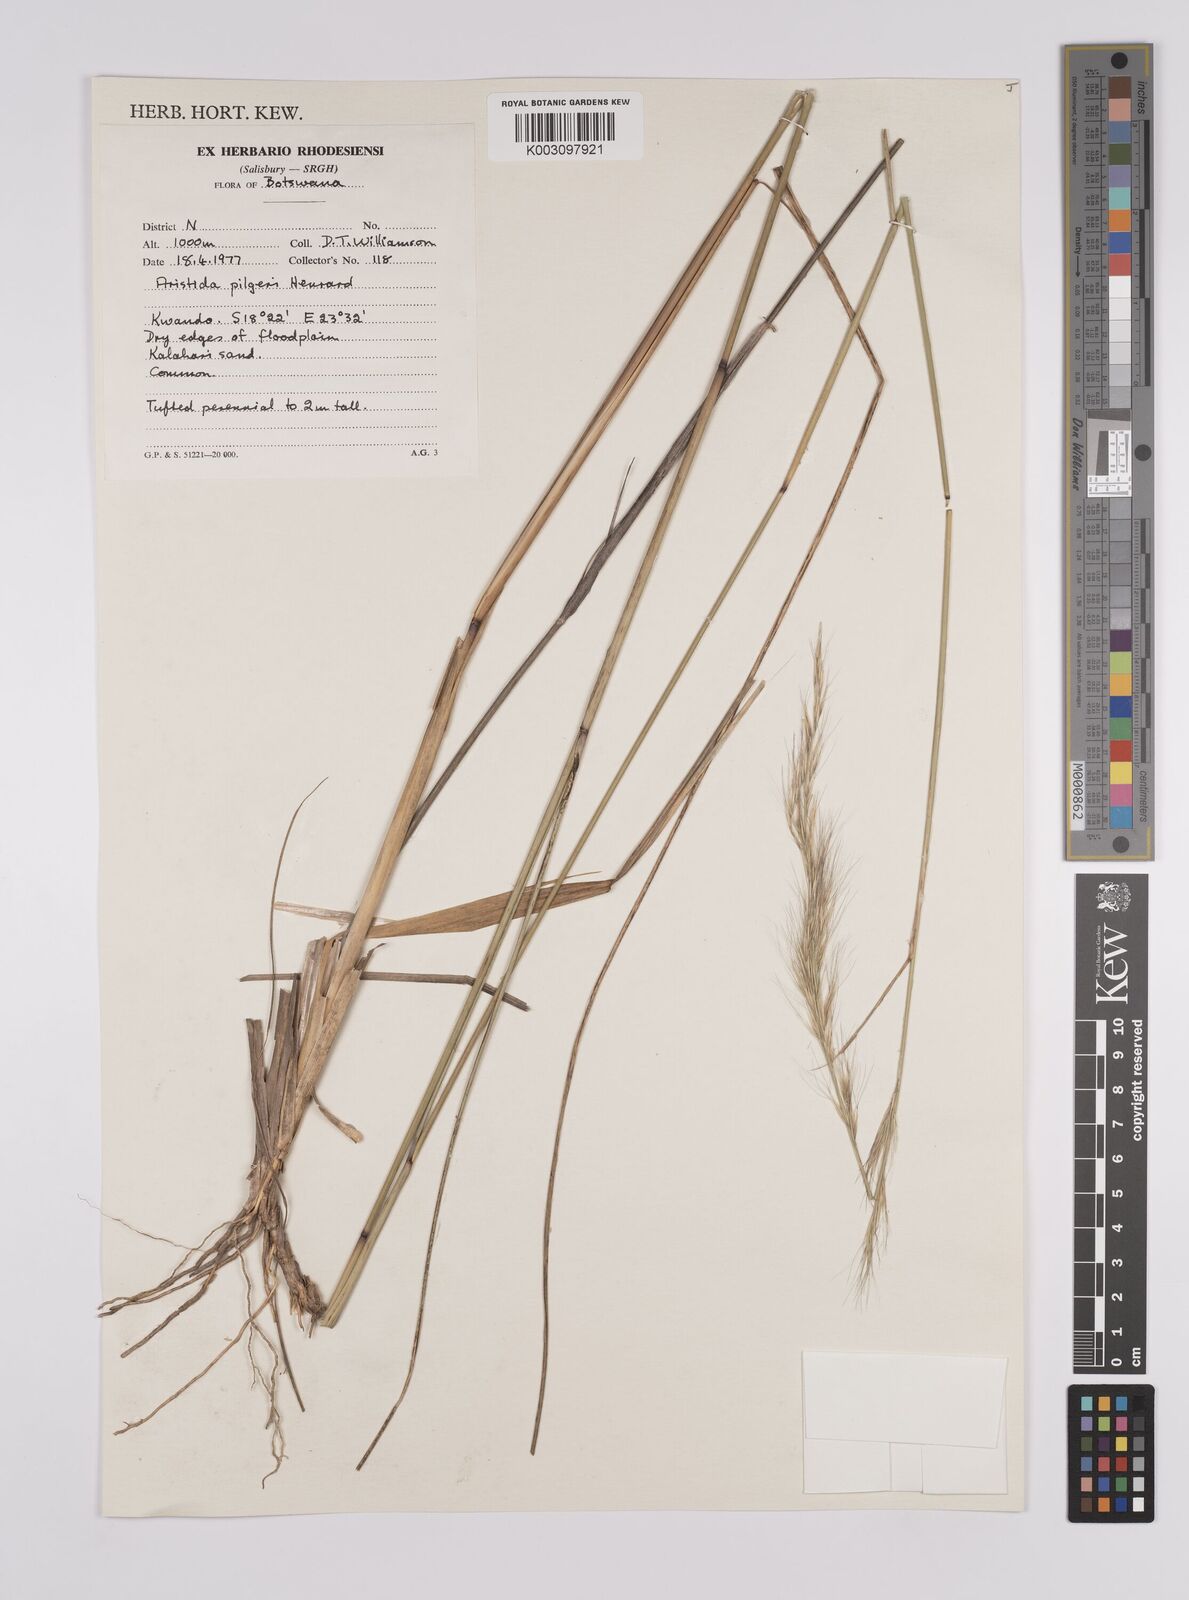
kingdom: Plantae
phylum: Tracheophyta
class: Liliopsida
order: Poales
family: Poaceae
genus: Aristida
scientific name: Aristida pilgeri
